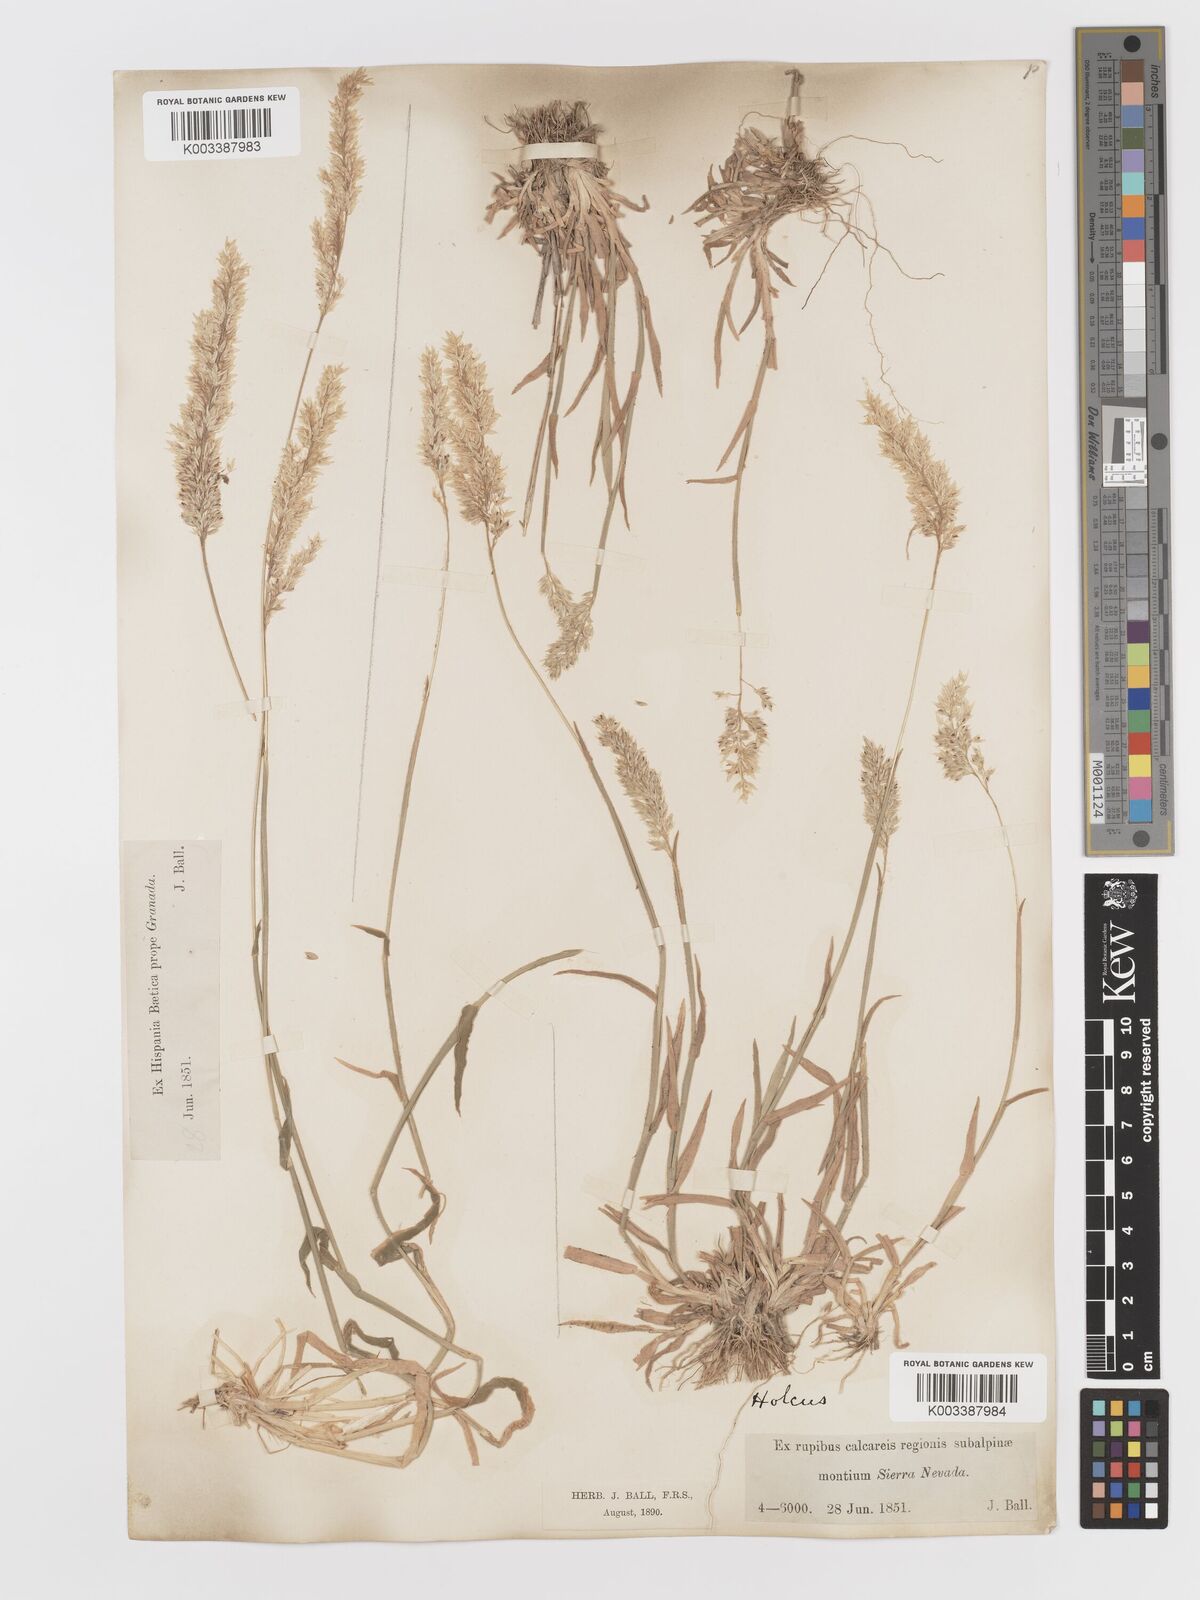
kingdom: Plantae
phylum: Tracheophyta
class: Liliopsida
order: Poales
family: Poaceae
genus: Holcus
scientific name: Holcus lanatus
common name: Yorkshire-fog
